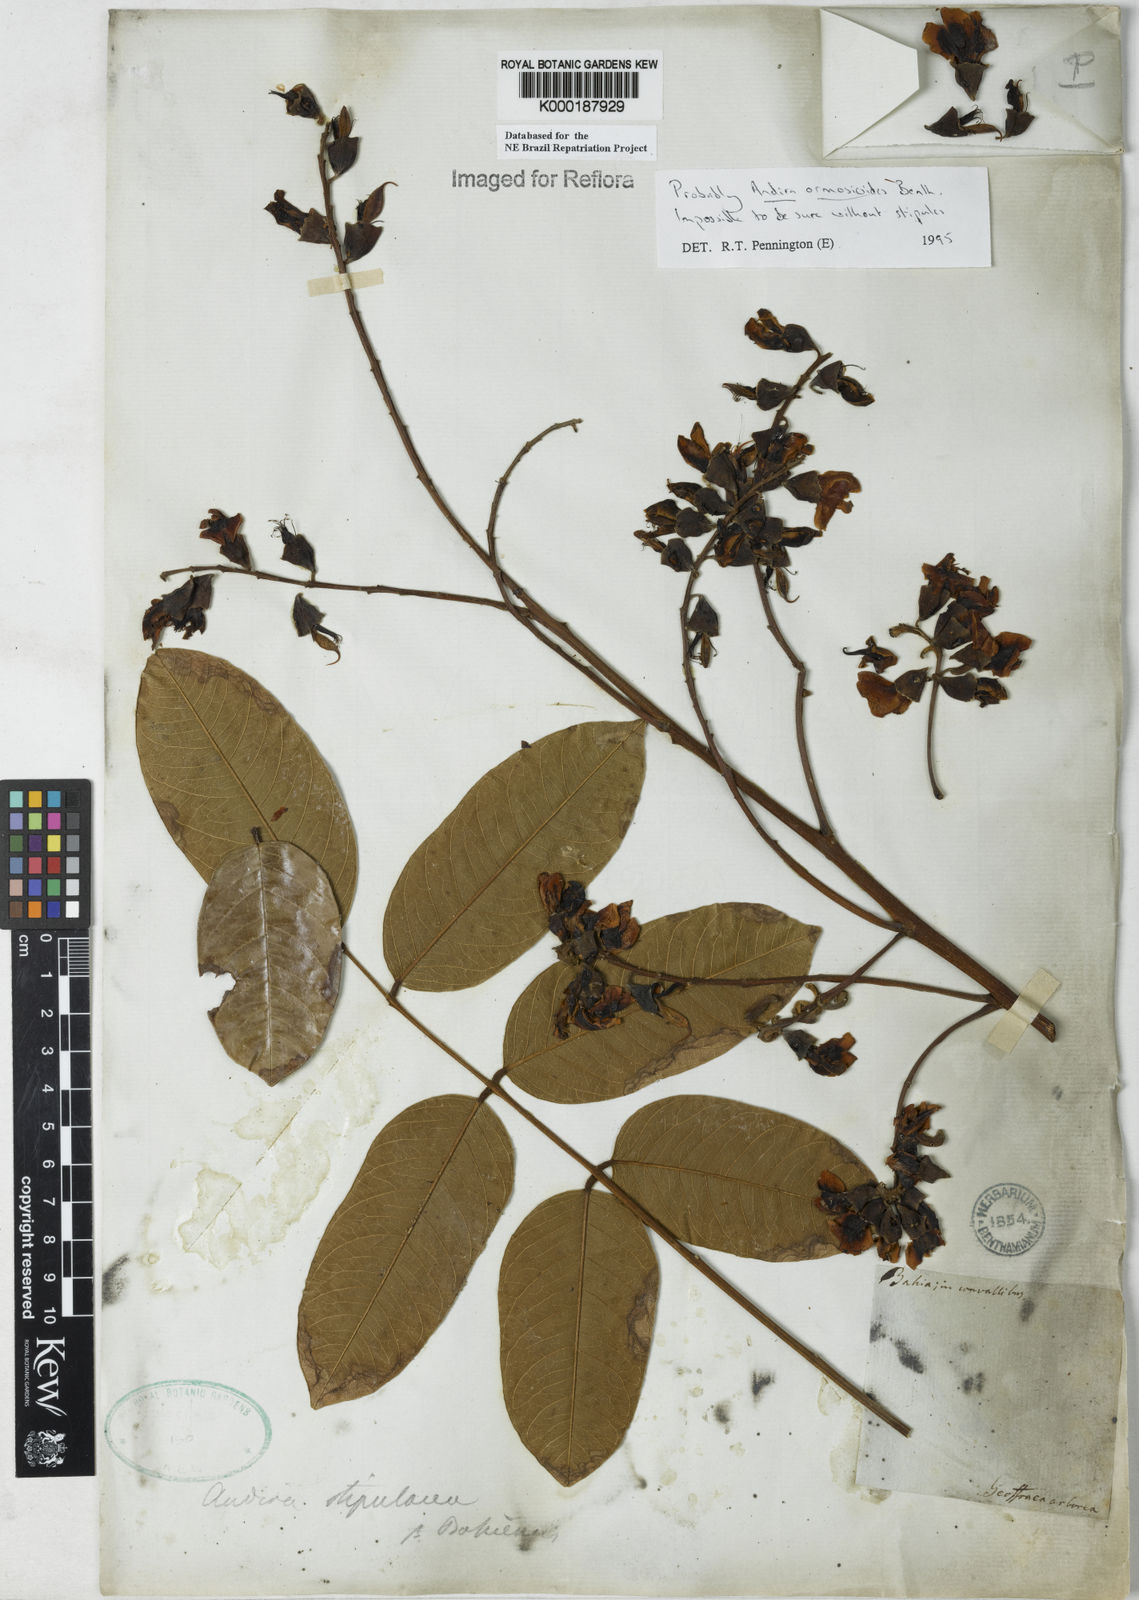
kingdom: Plantae
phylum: Tracheophyta
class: Magnoliopsida
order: Fabales
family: Fabaceae
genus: Andira
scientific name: Andira ormosioides
